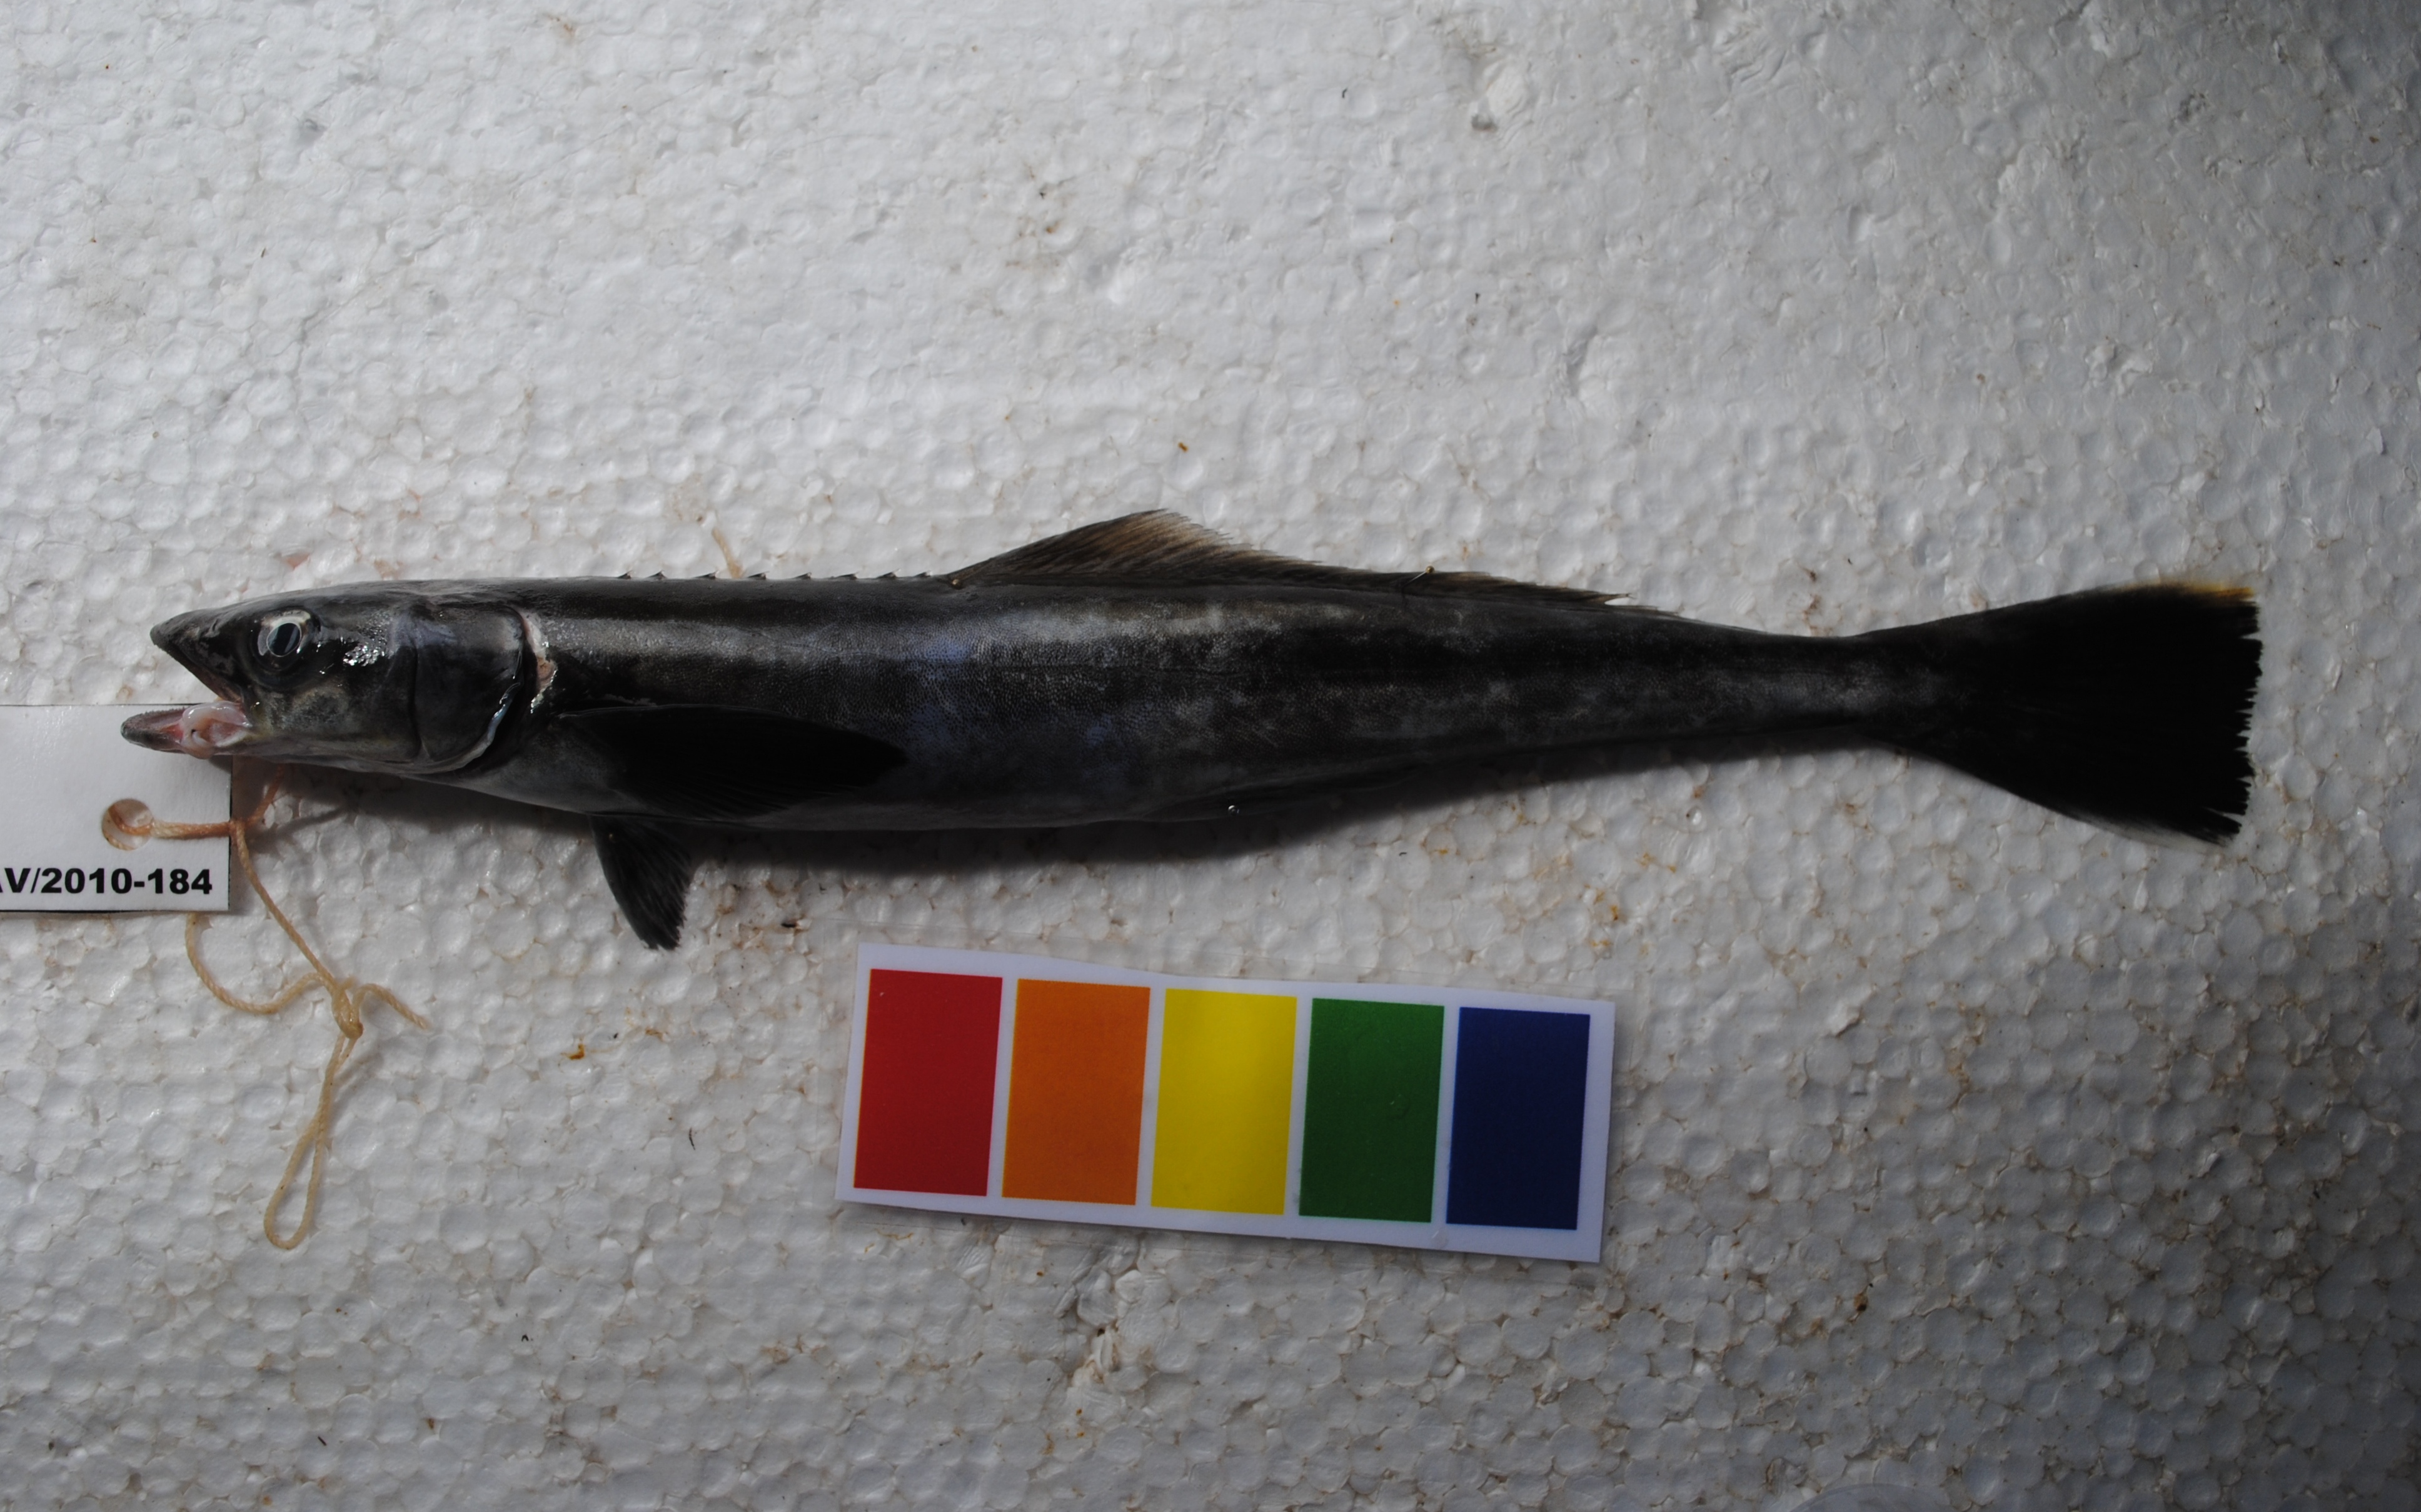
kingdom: Animalia
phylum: Chordata
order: Perciformes
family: Rachycentridae
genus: Rachycentron
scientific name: Rachycentron canadum
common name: Cobia
